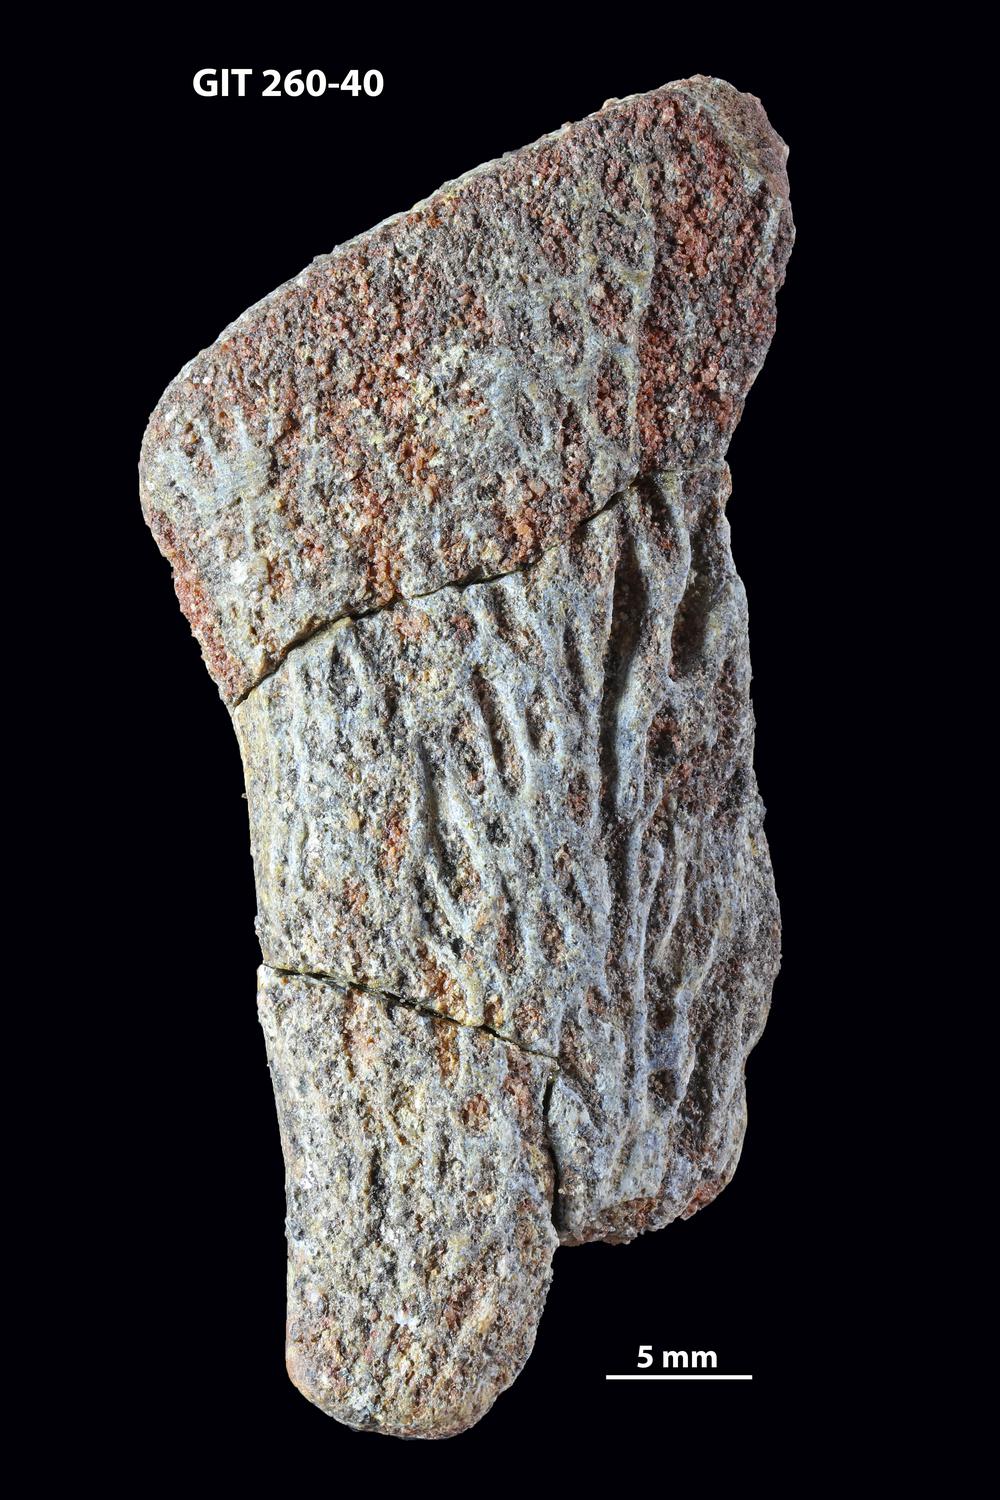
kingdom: Animalia
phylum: Chordata
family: Homostiidae
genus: Homostius
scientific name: Homostius
